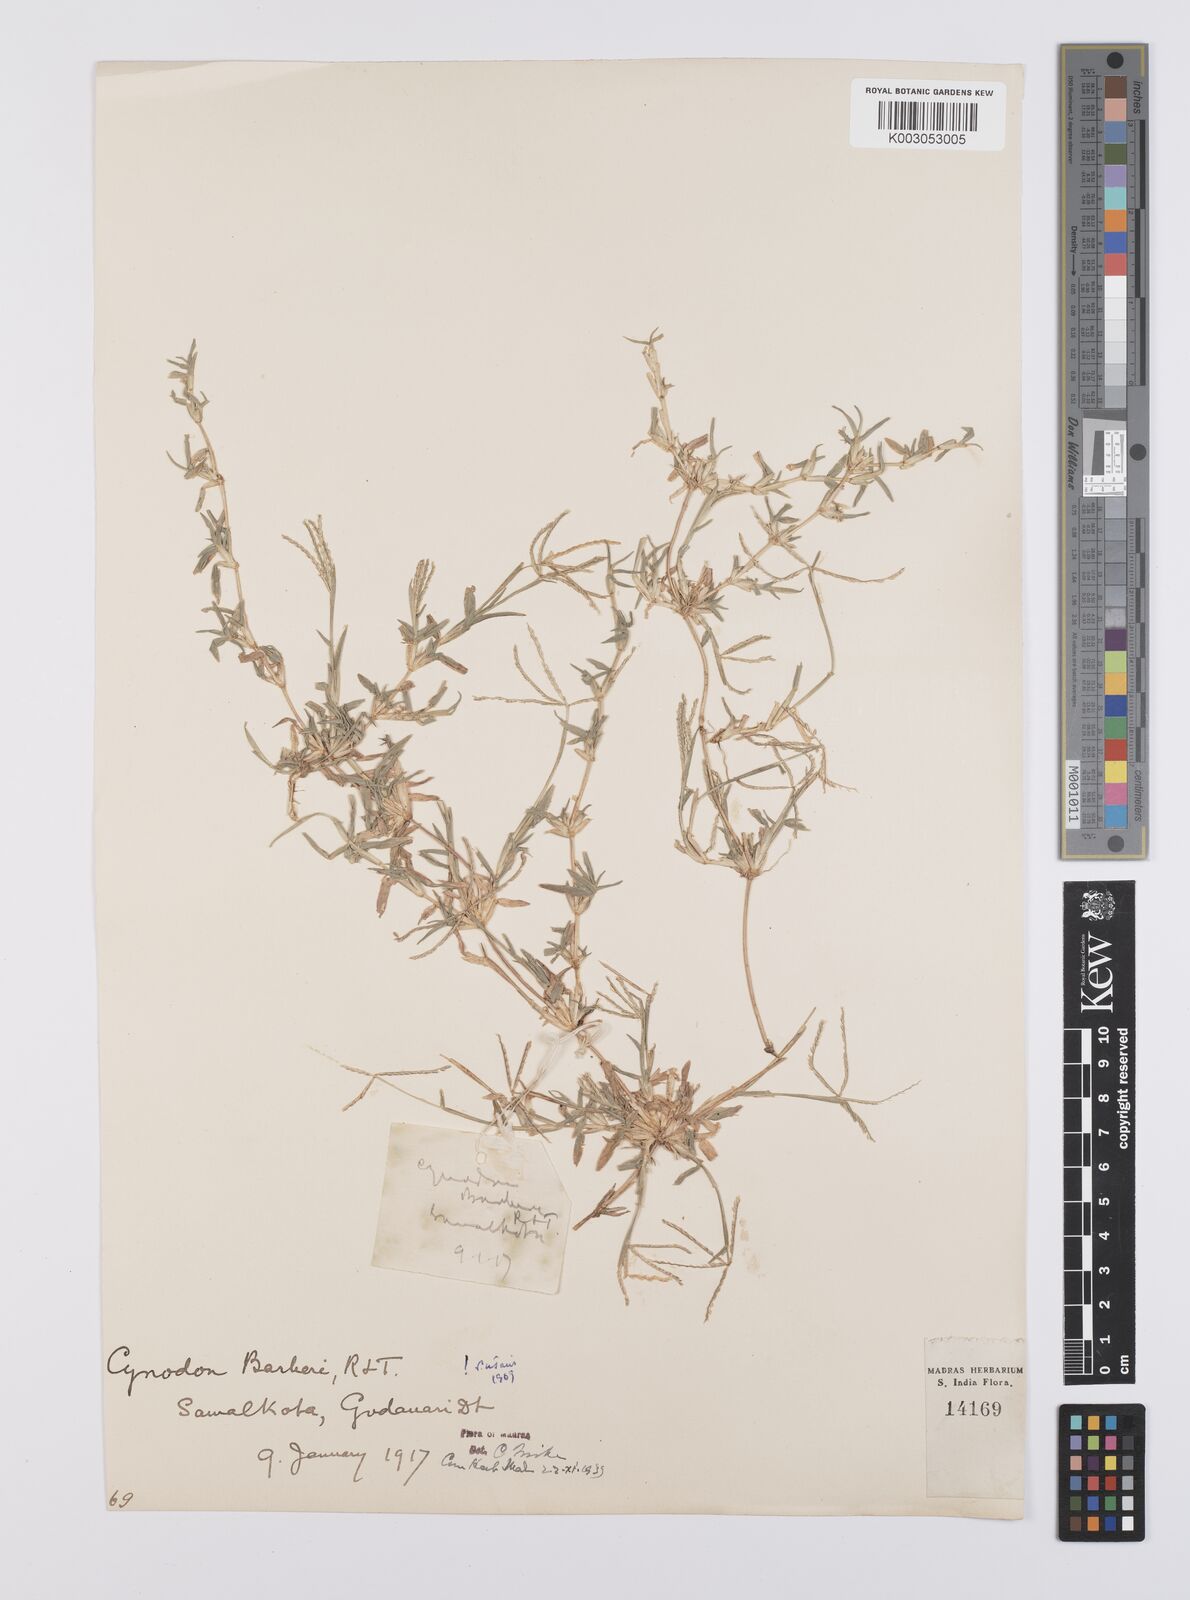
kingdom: Plantae
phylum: Tracheophyta
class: Liliopsida
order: Poales
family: Poaceae
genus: Cynodon
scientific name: Cynodon barberi
